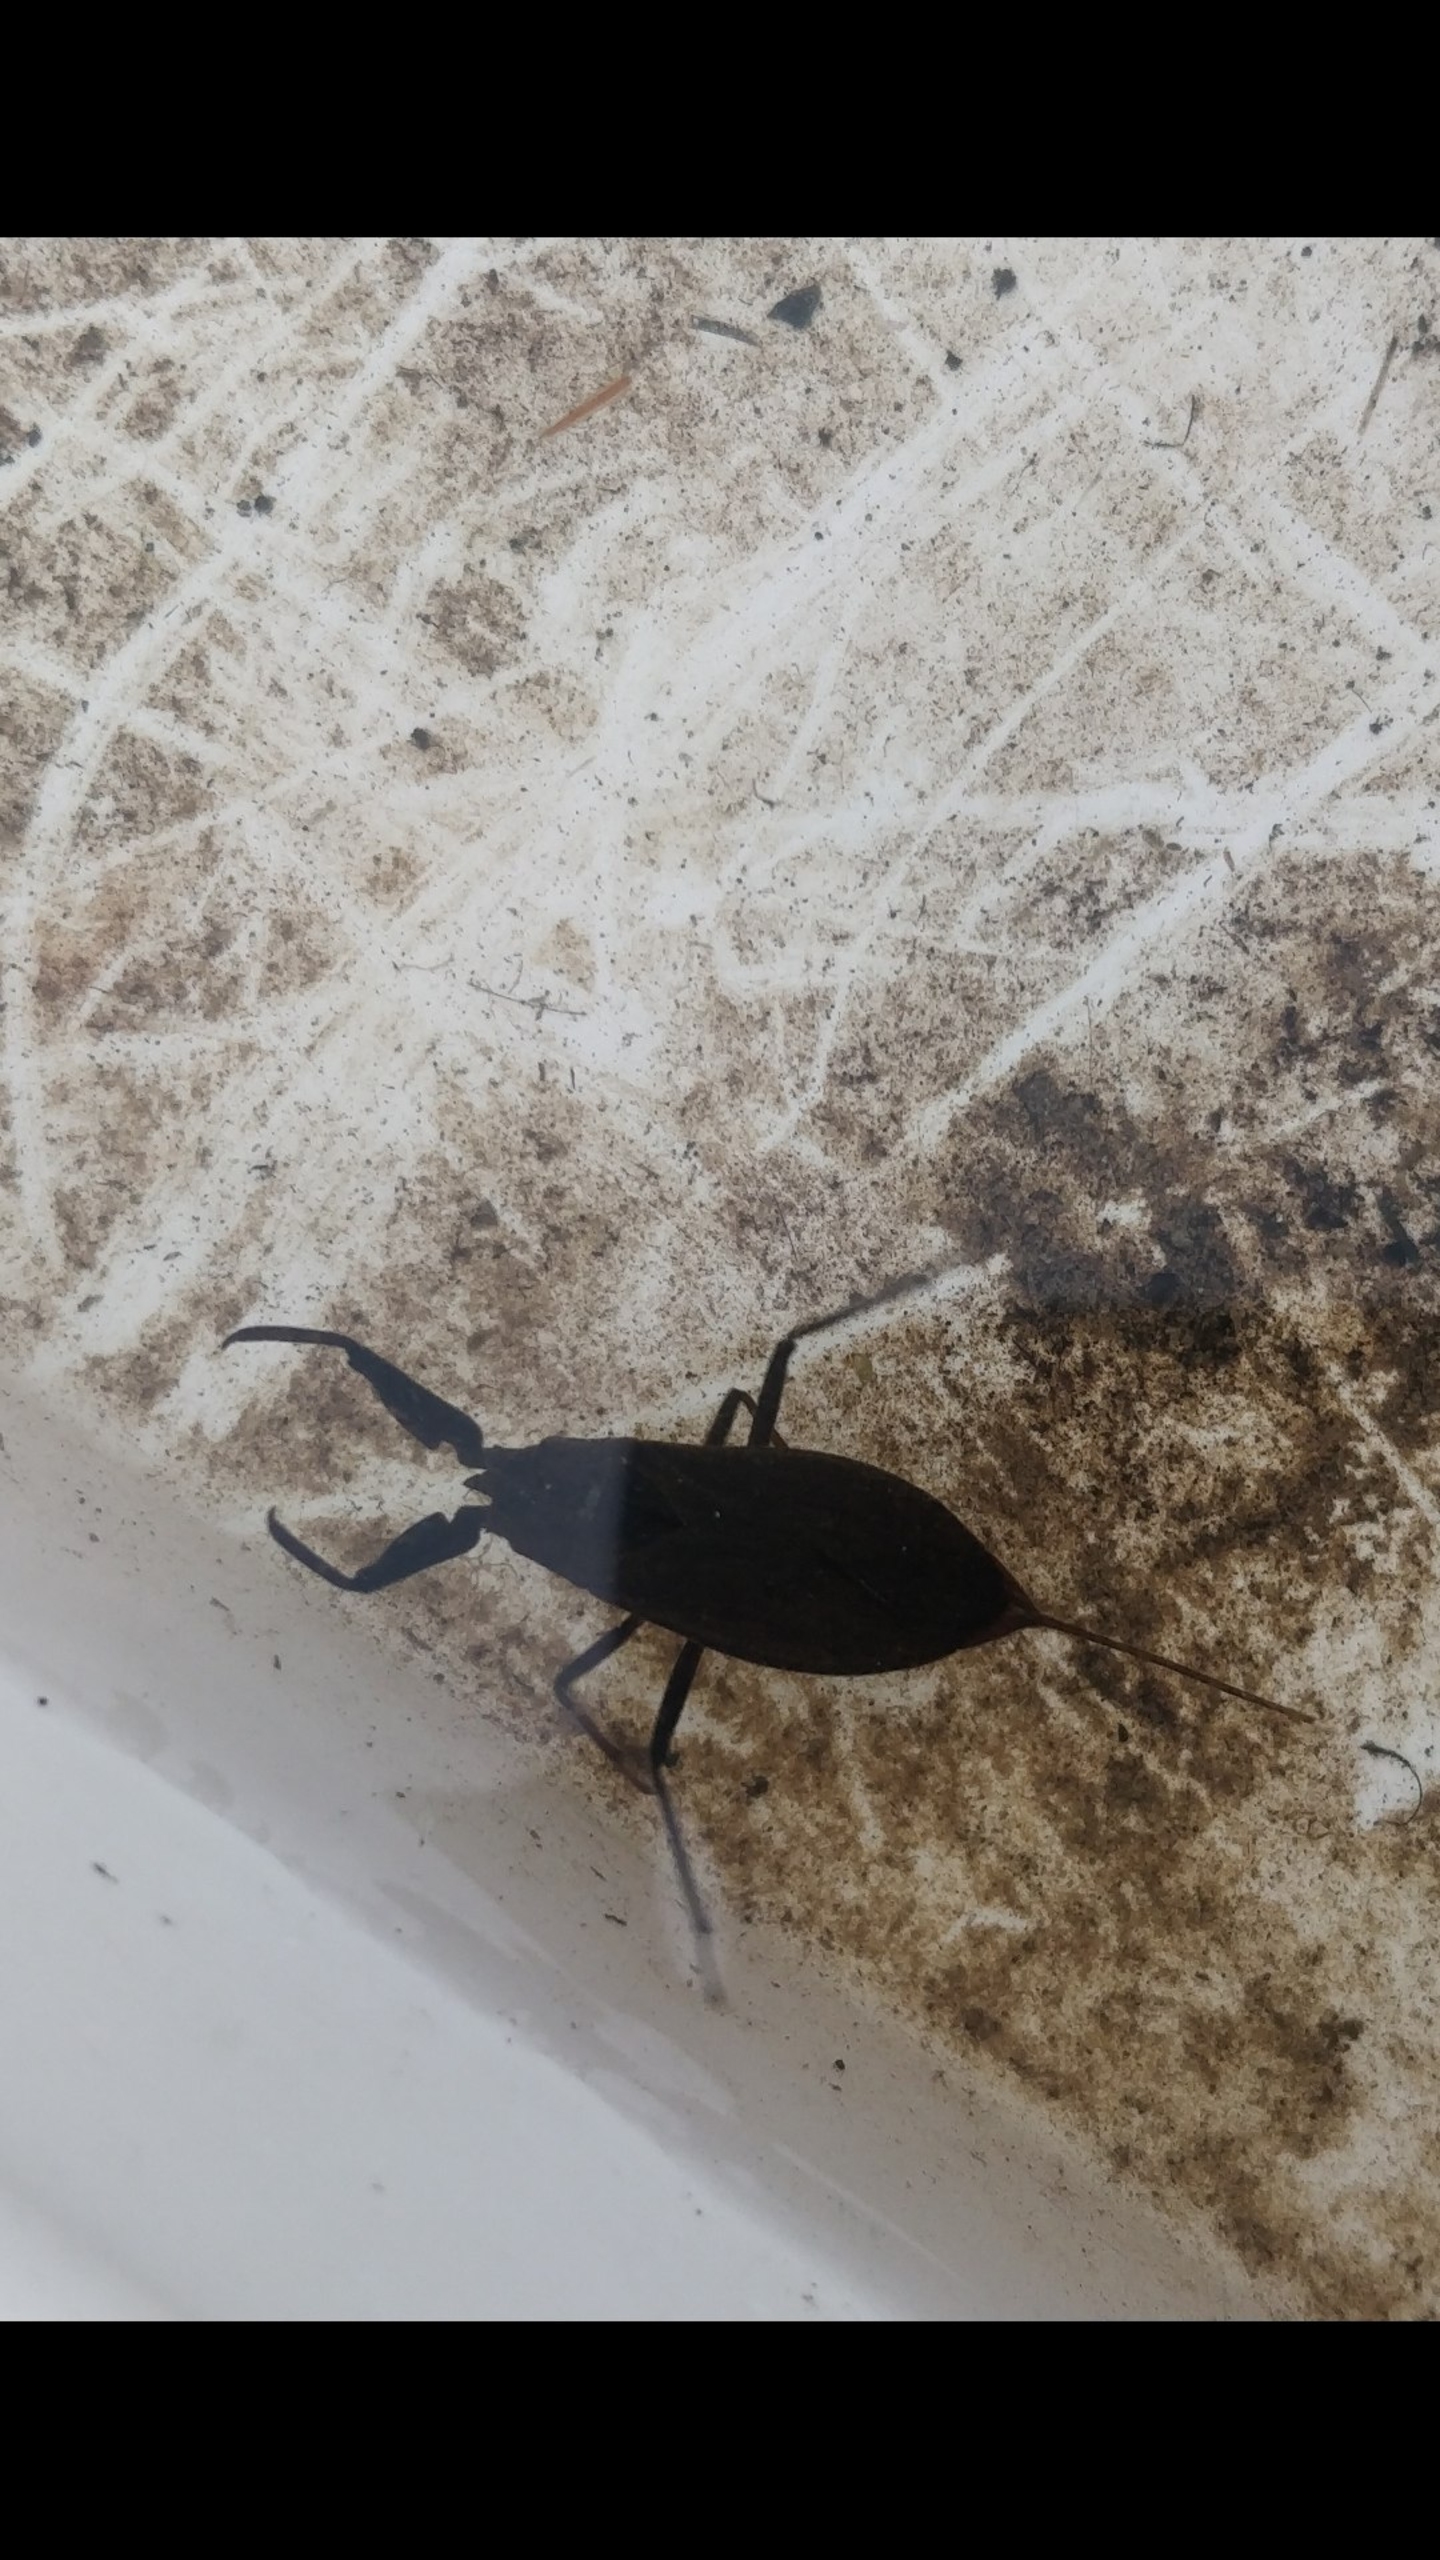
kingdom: Animalia
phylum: Arthropoda
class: Insecta
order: Hemiptera
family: Nepidae
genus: Nepa
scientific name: Nepa cinerea
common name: Skorpiontæge
